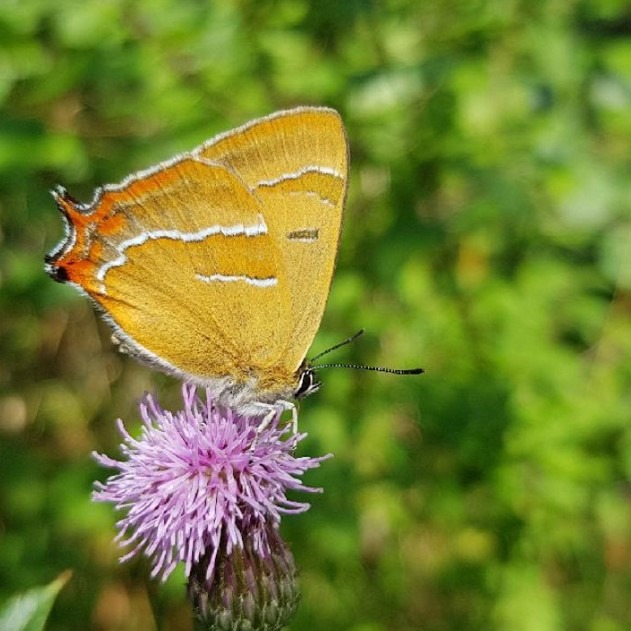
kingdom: Animalia
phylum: Arthropoda
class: Insecta
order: Lepidoptera
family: Lycaenidae
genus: Thecla
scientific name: Thecla betulae
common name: Guldhale
